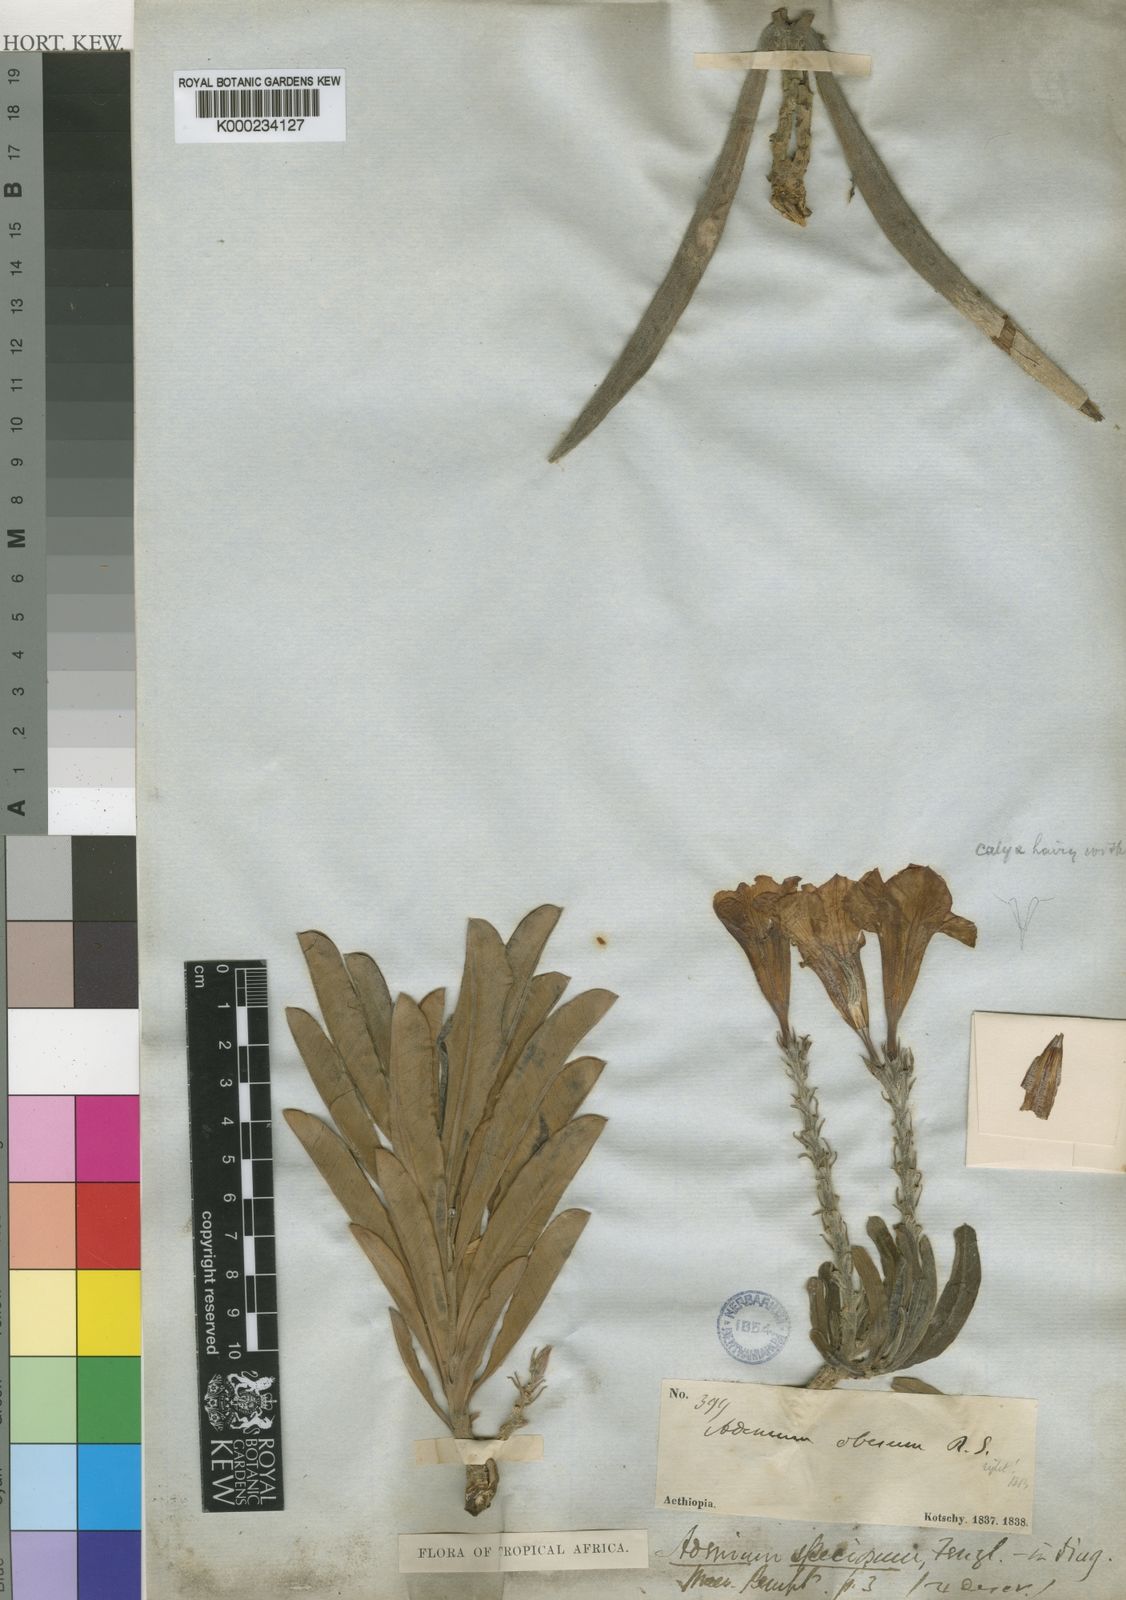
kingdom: Plantae
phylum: Tracheophyta
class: Magnoliopsida
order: Gentianales
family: Apocynaceae
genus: Adenium
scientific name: Adenium obesum
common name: Desert-rose
